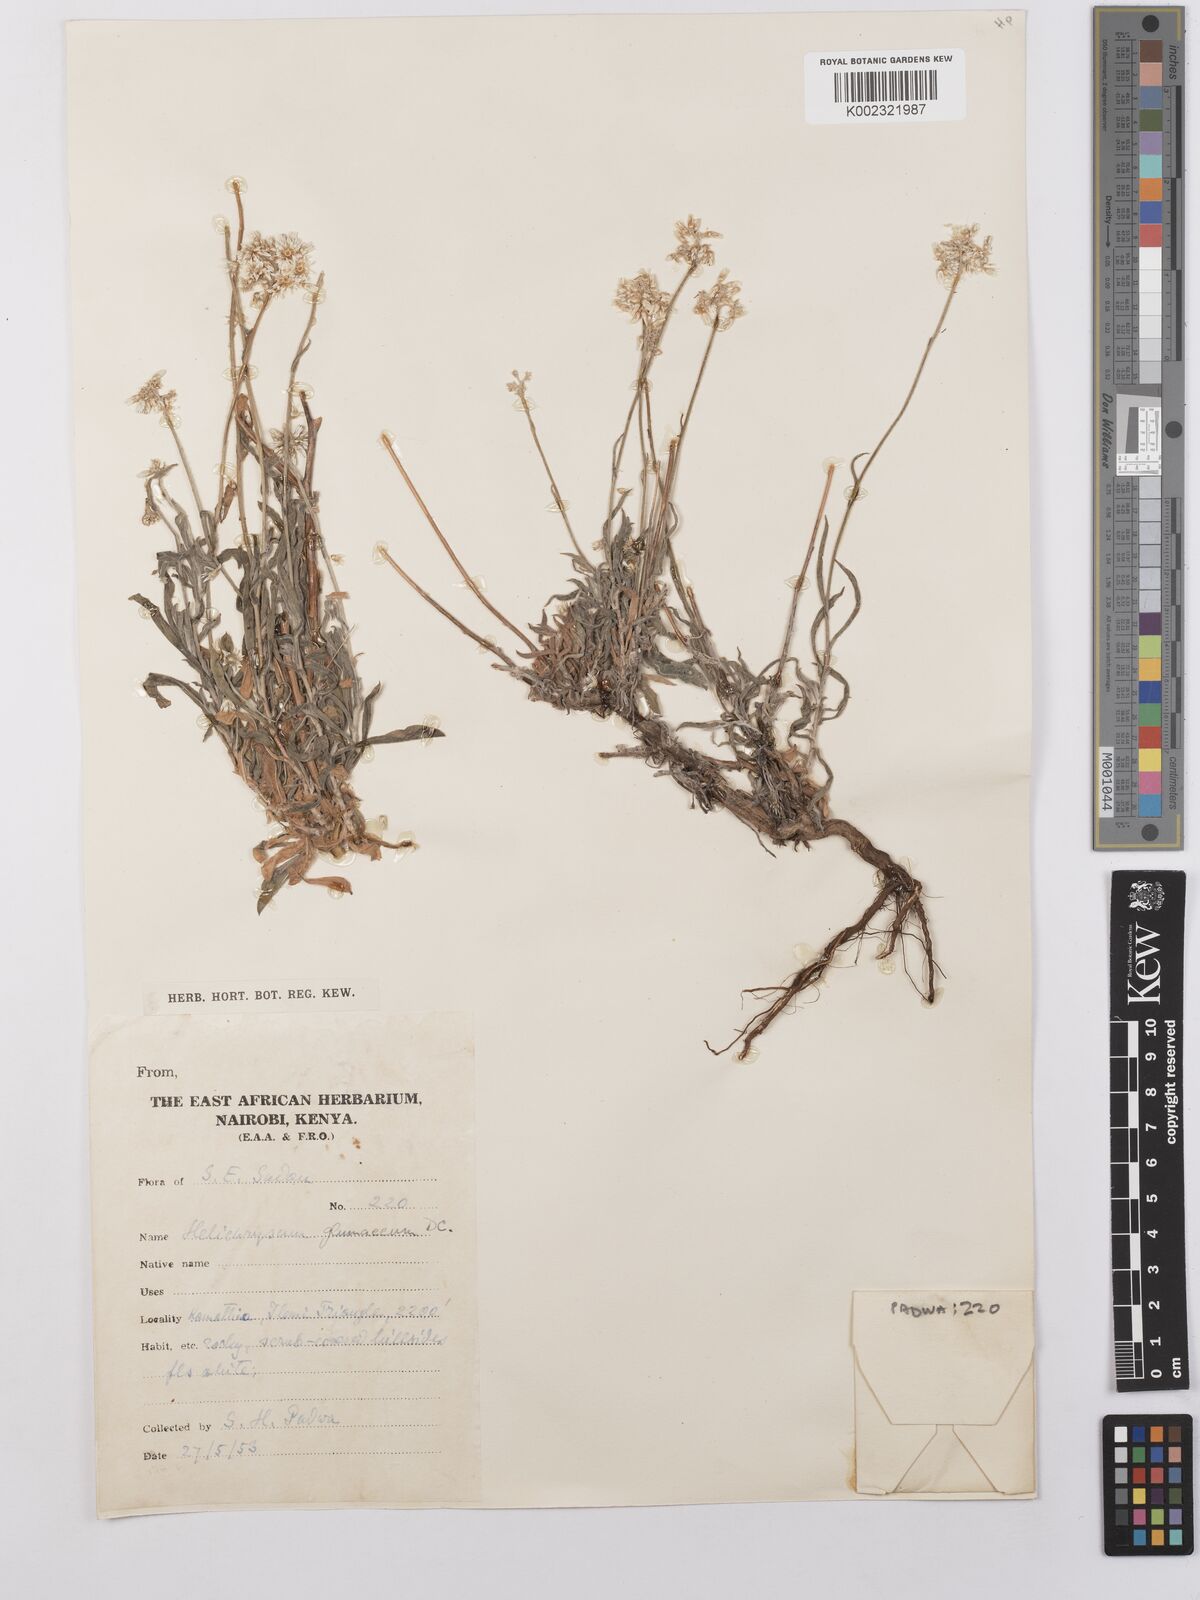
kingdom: Plantae
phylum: Tracheophyta
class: Magnoliopsida
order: Asterales
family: Asteraceae
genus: Helichrysum
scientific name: Helichrysum glumaceum
